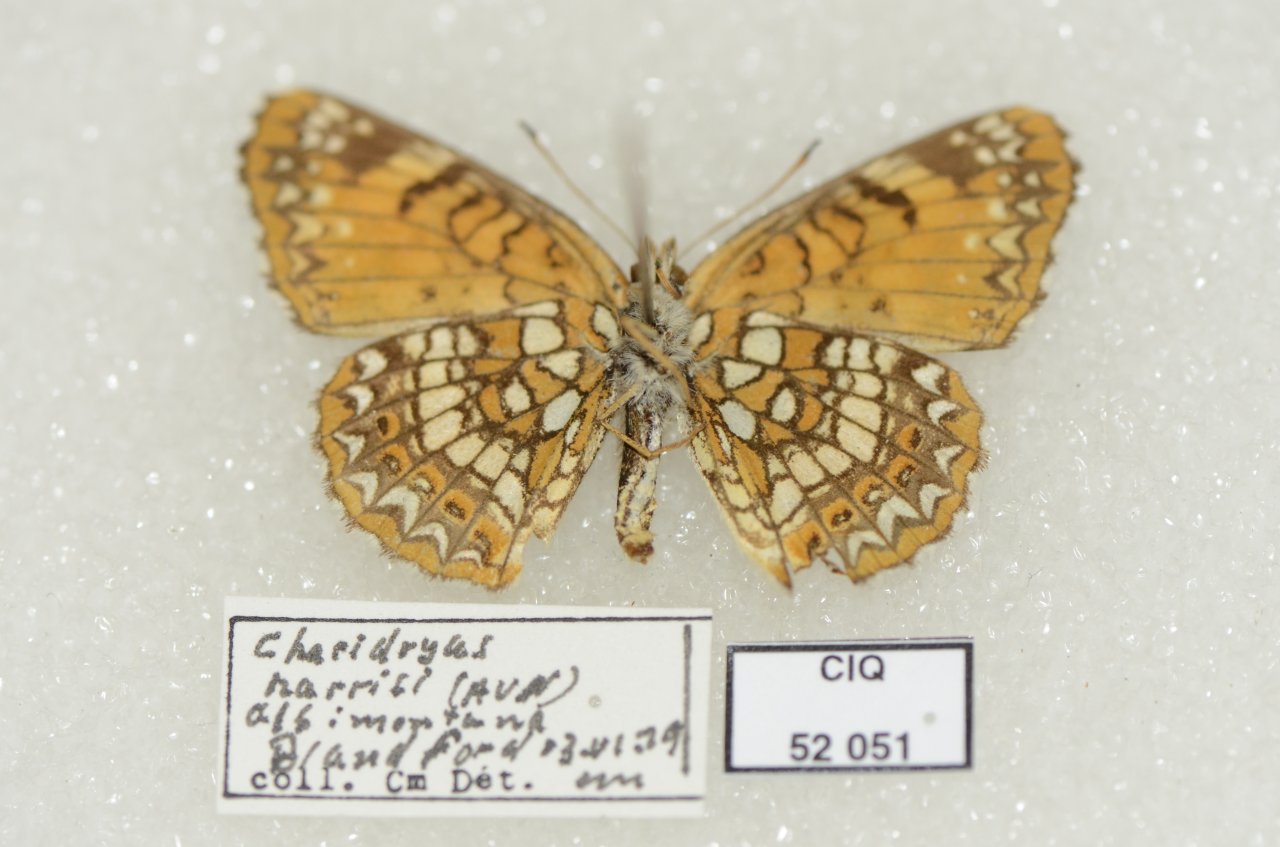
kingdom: Animalia
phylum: Arthropoda
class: Insecta
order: Lepidoptera
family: Nymphalidae
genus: Chlosyne
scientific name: Chlosyne harrisii
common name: Harris's Checkerspot
